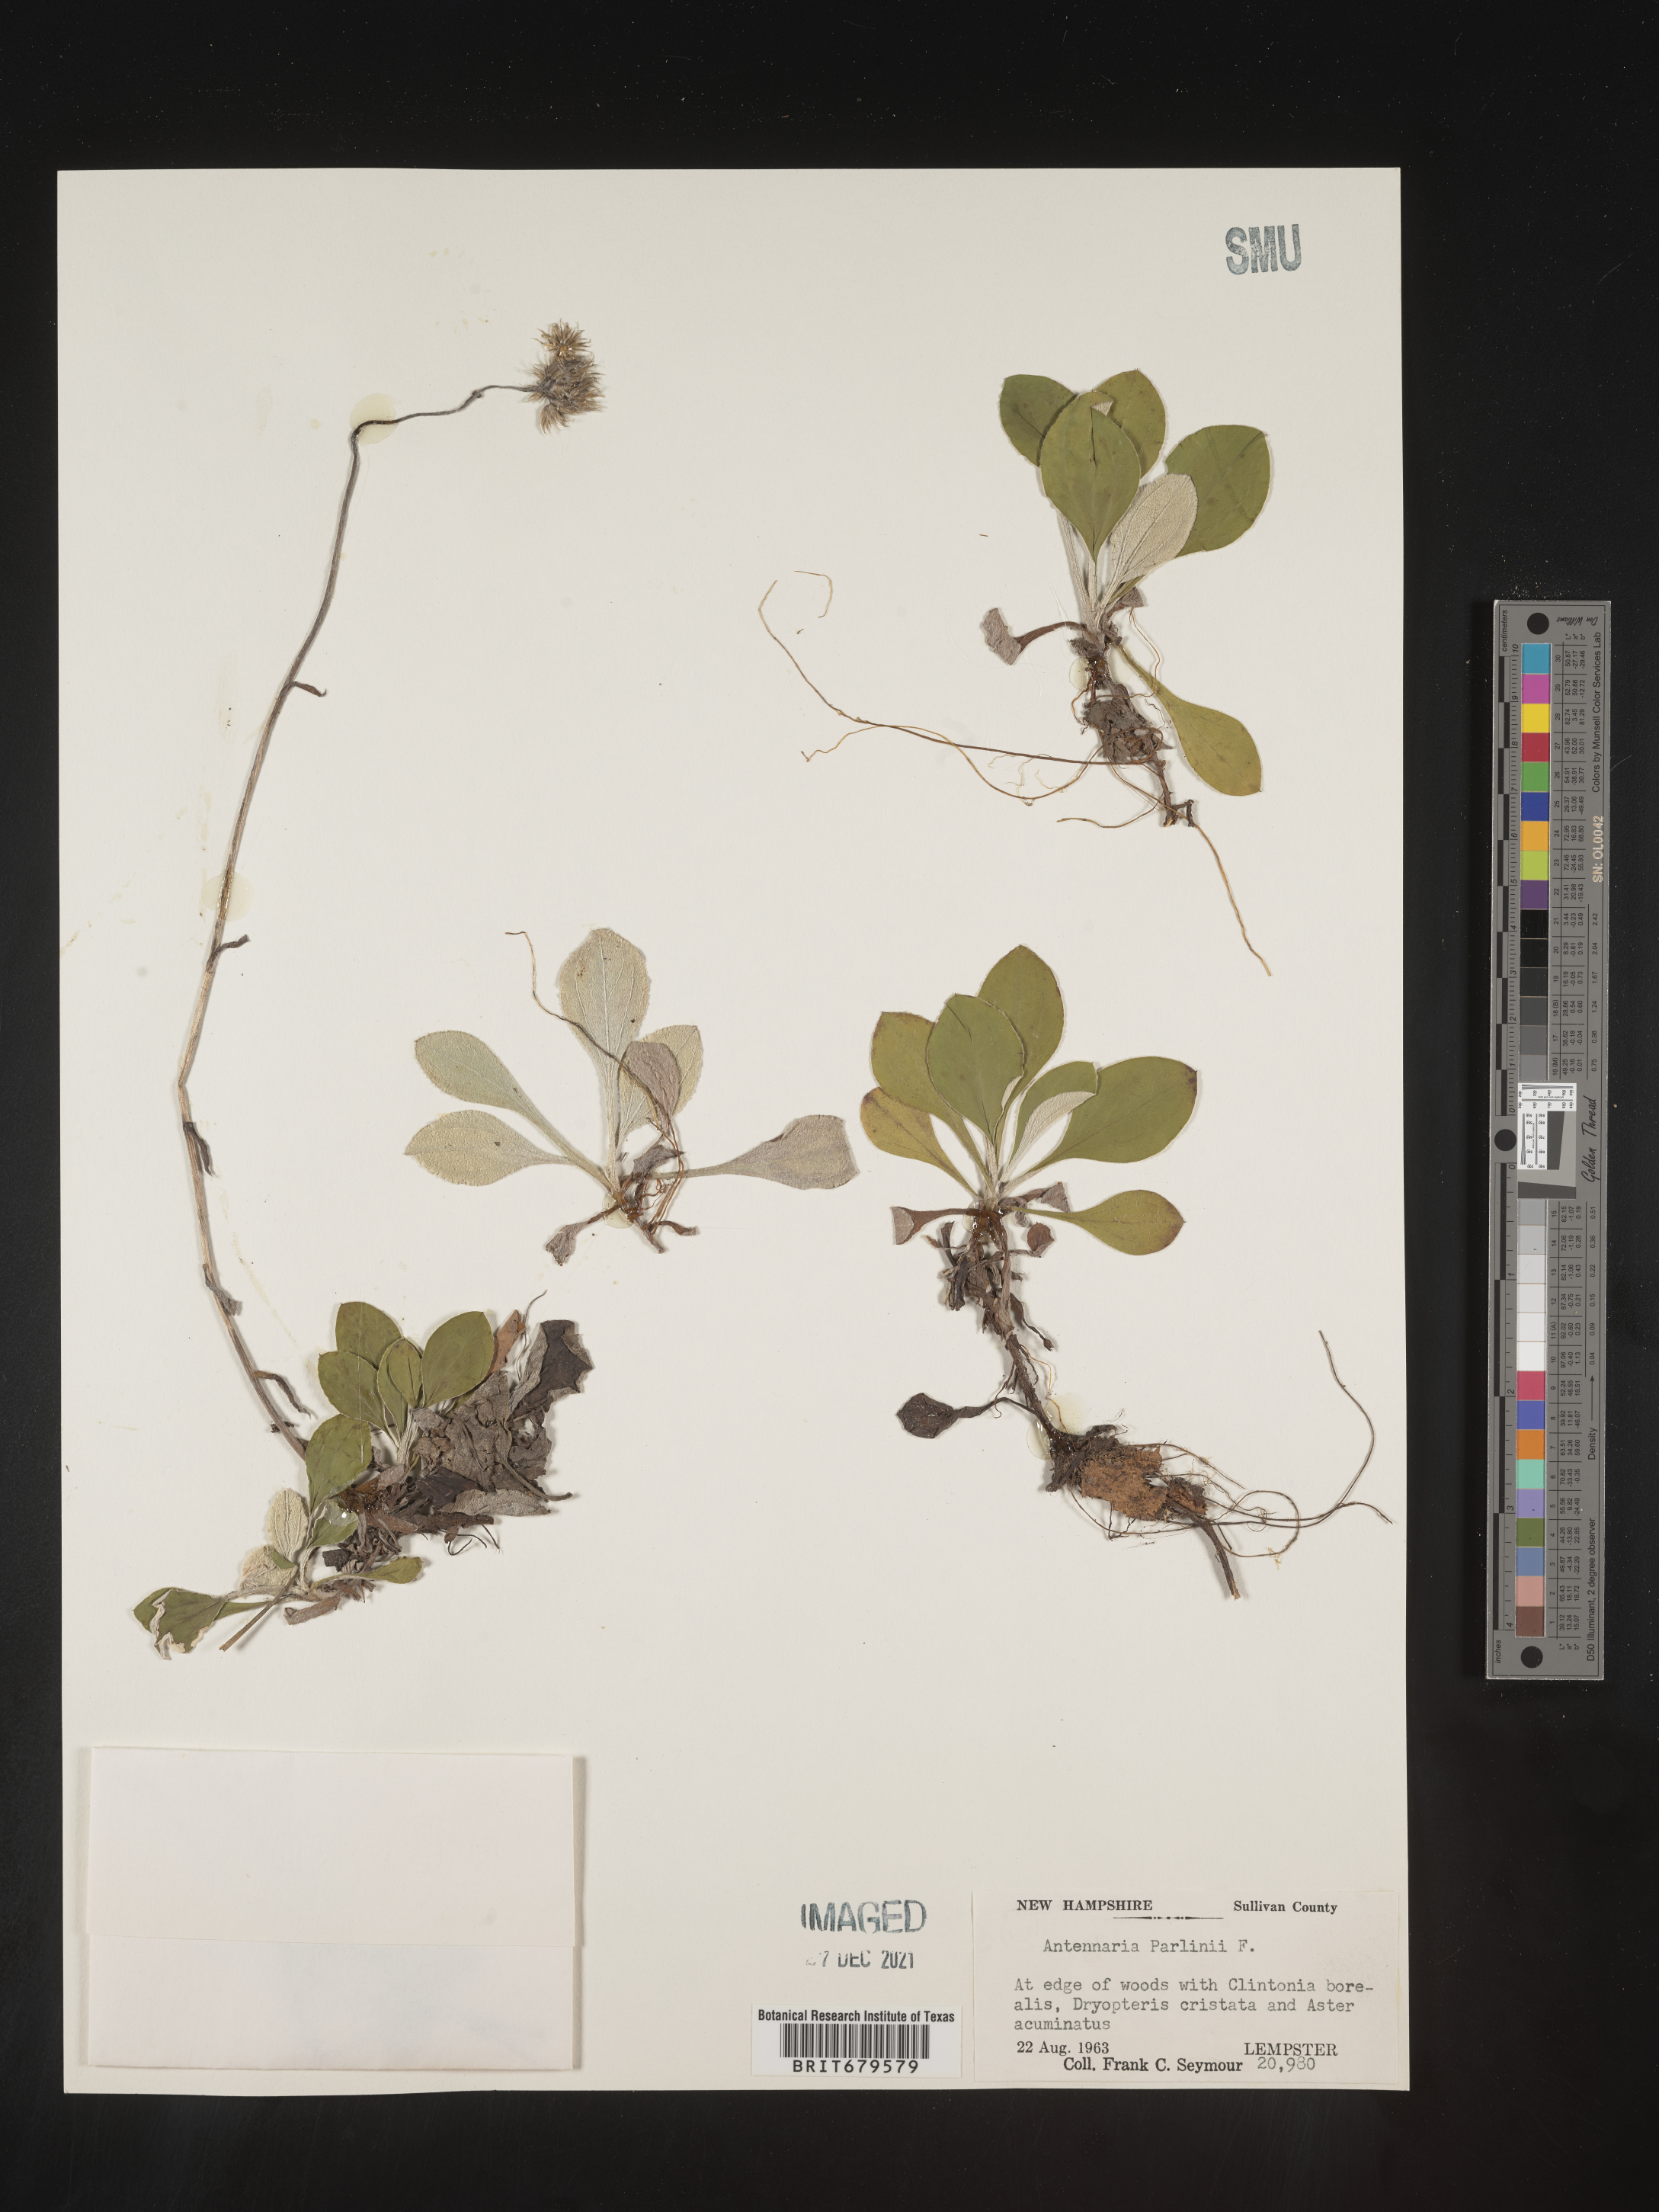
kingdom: Plantae
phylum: Tracheophyta
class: Magnoliopsida
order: Asterales
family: Asteraceae
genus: Antennaria
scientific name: Antennaria parlinii
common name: Parlin's pussytoes
